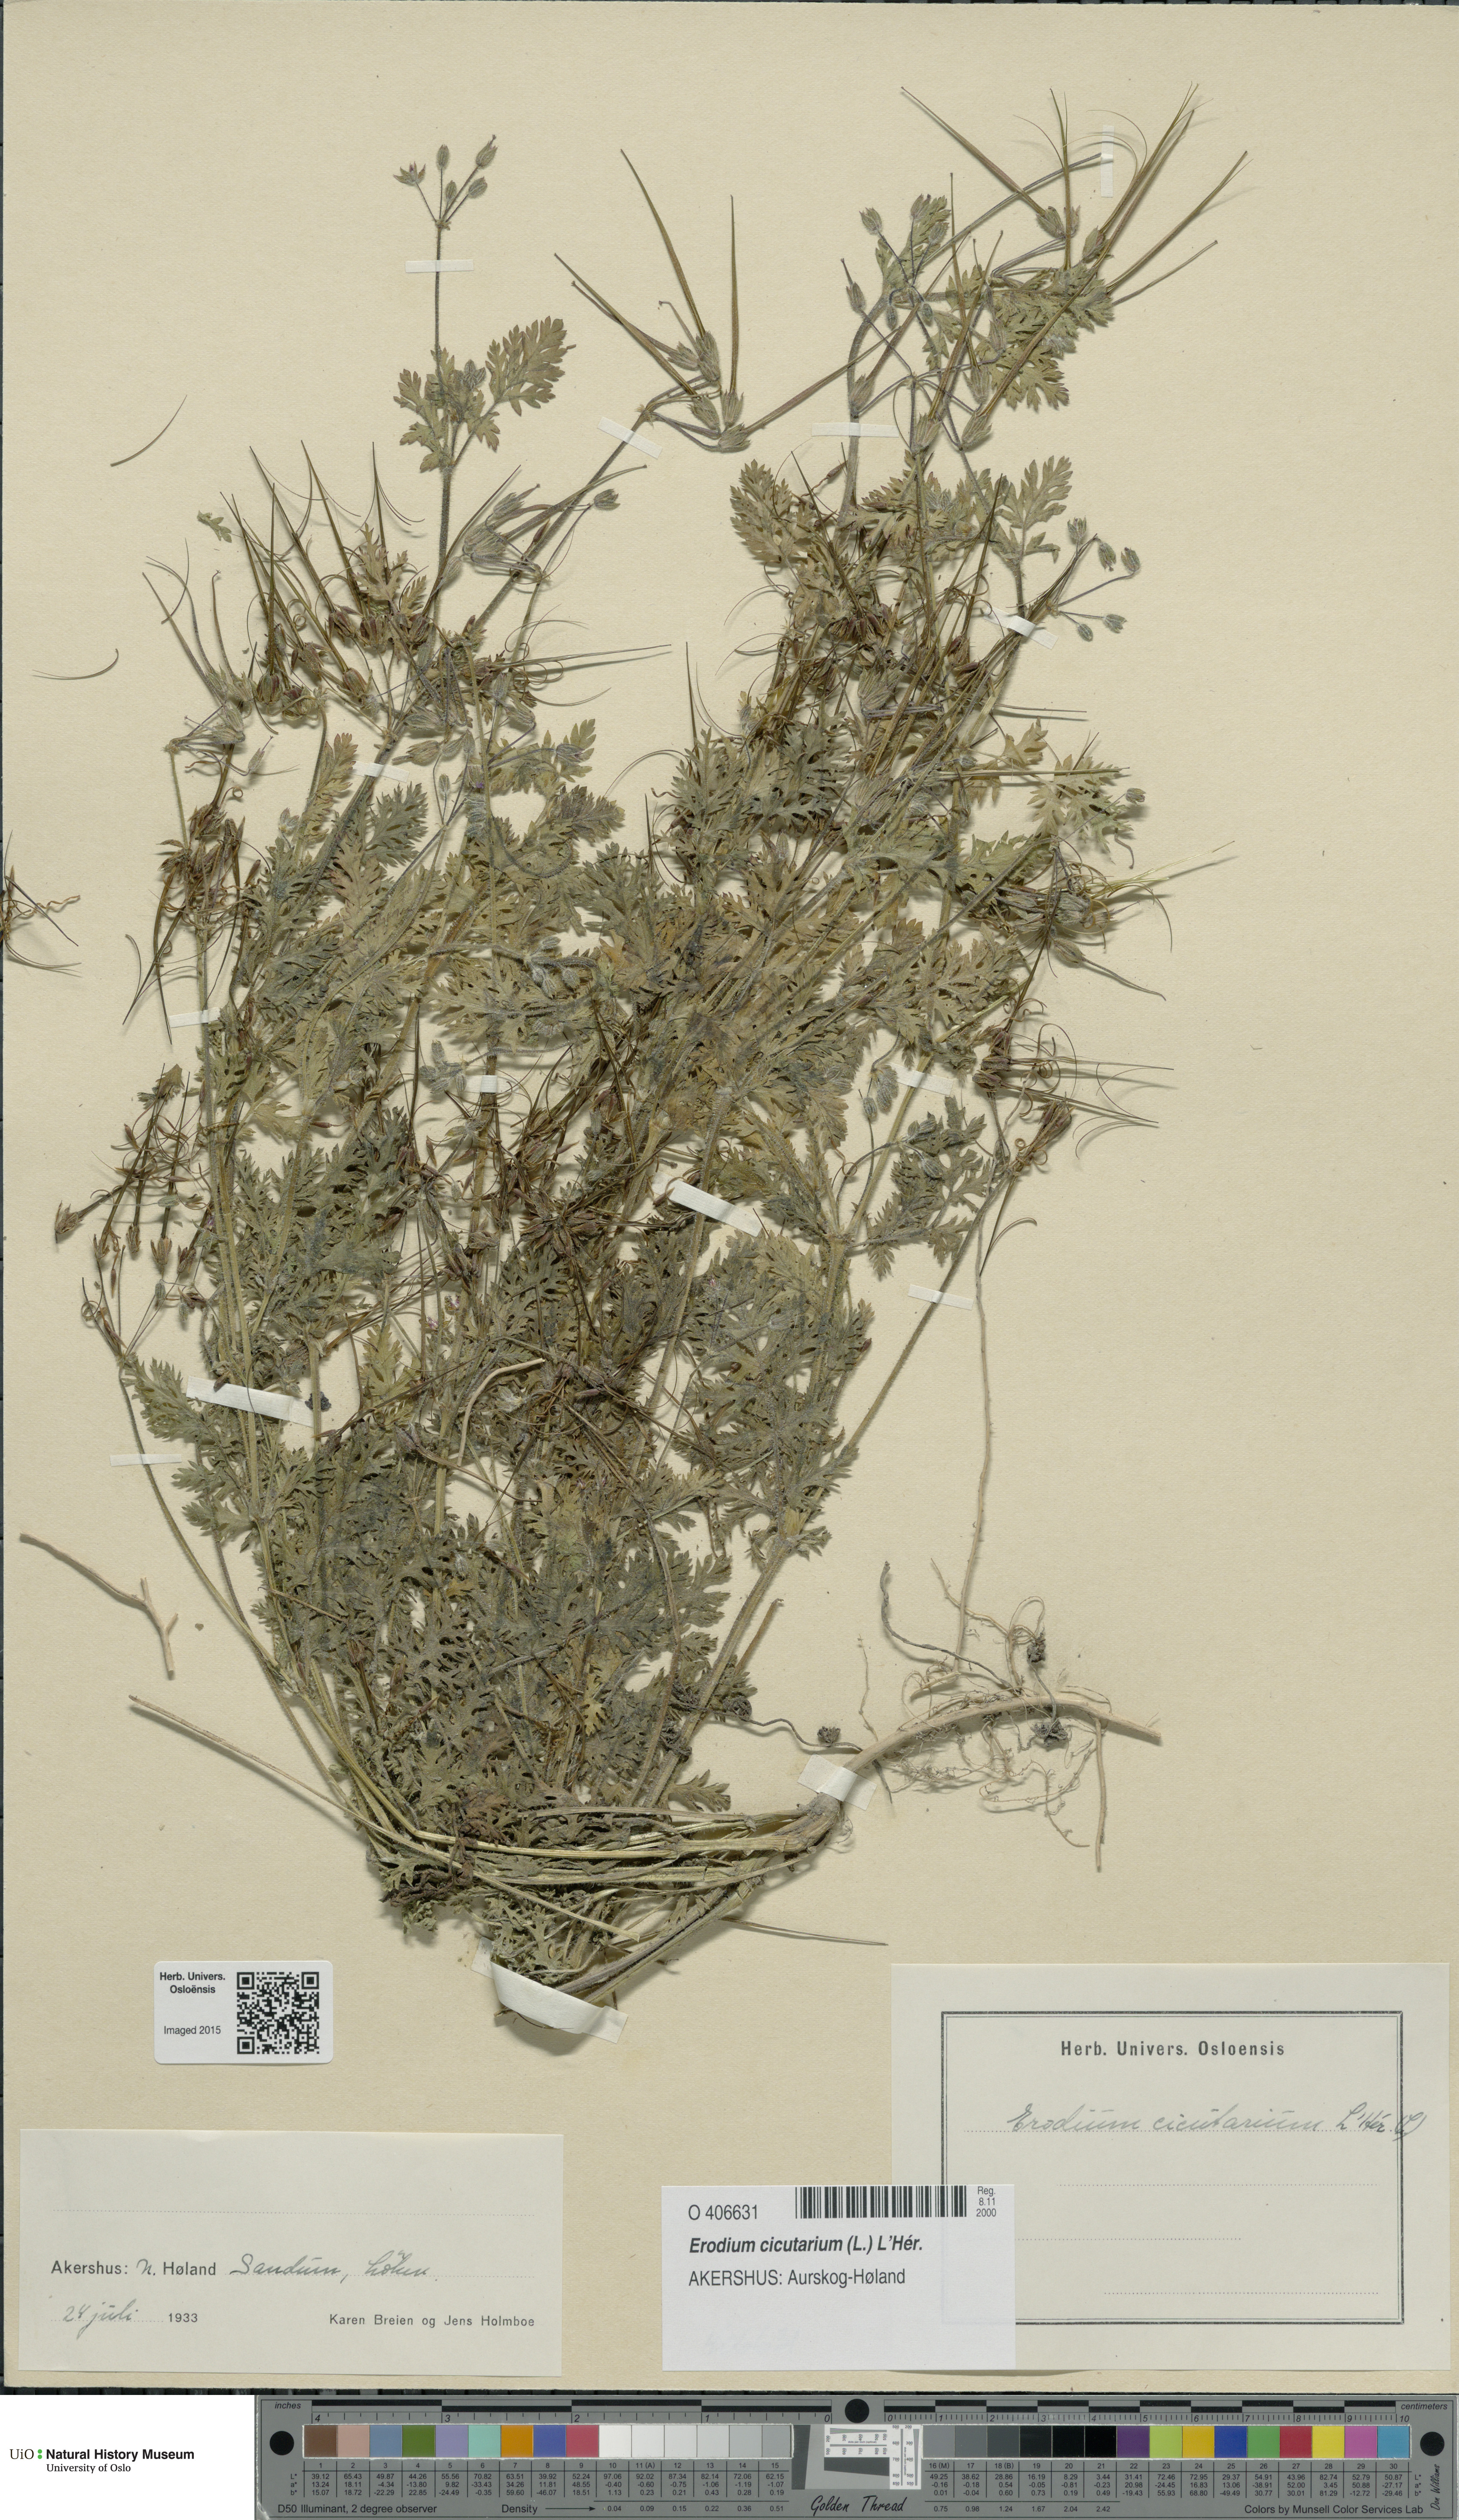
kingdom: Plantae
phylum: Tracheophyta
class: Magnoliopsida
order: Geraniales
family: Geraniaceae
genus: Erodium
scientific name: Erodium cicutarium
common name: Common stork's-bill
